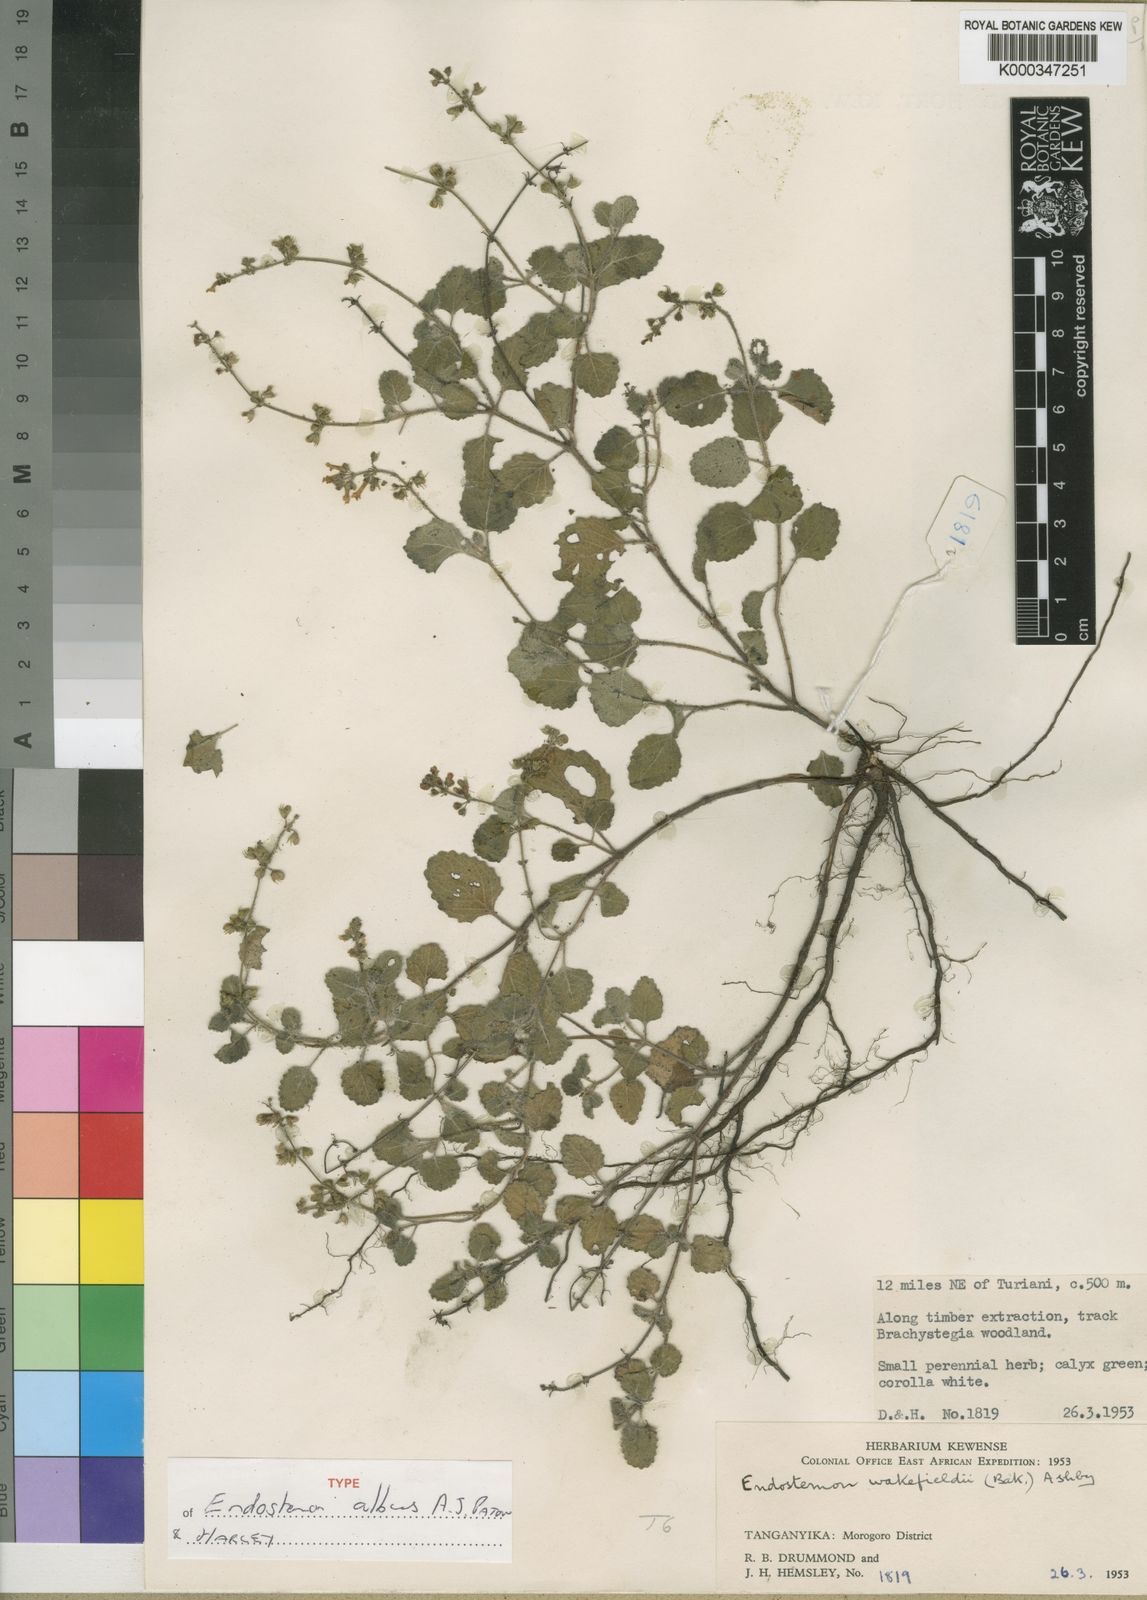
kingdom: Plantae
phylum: Tracheophyta
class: Magnoliopsida
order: Lamiales
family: Lamiaceae
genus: Endostemon
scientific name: Endostemon albus
